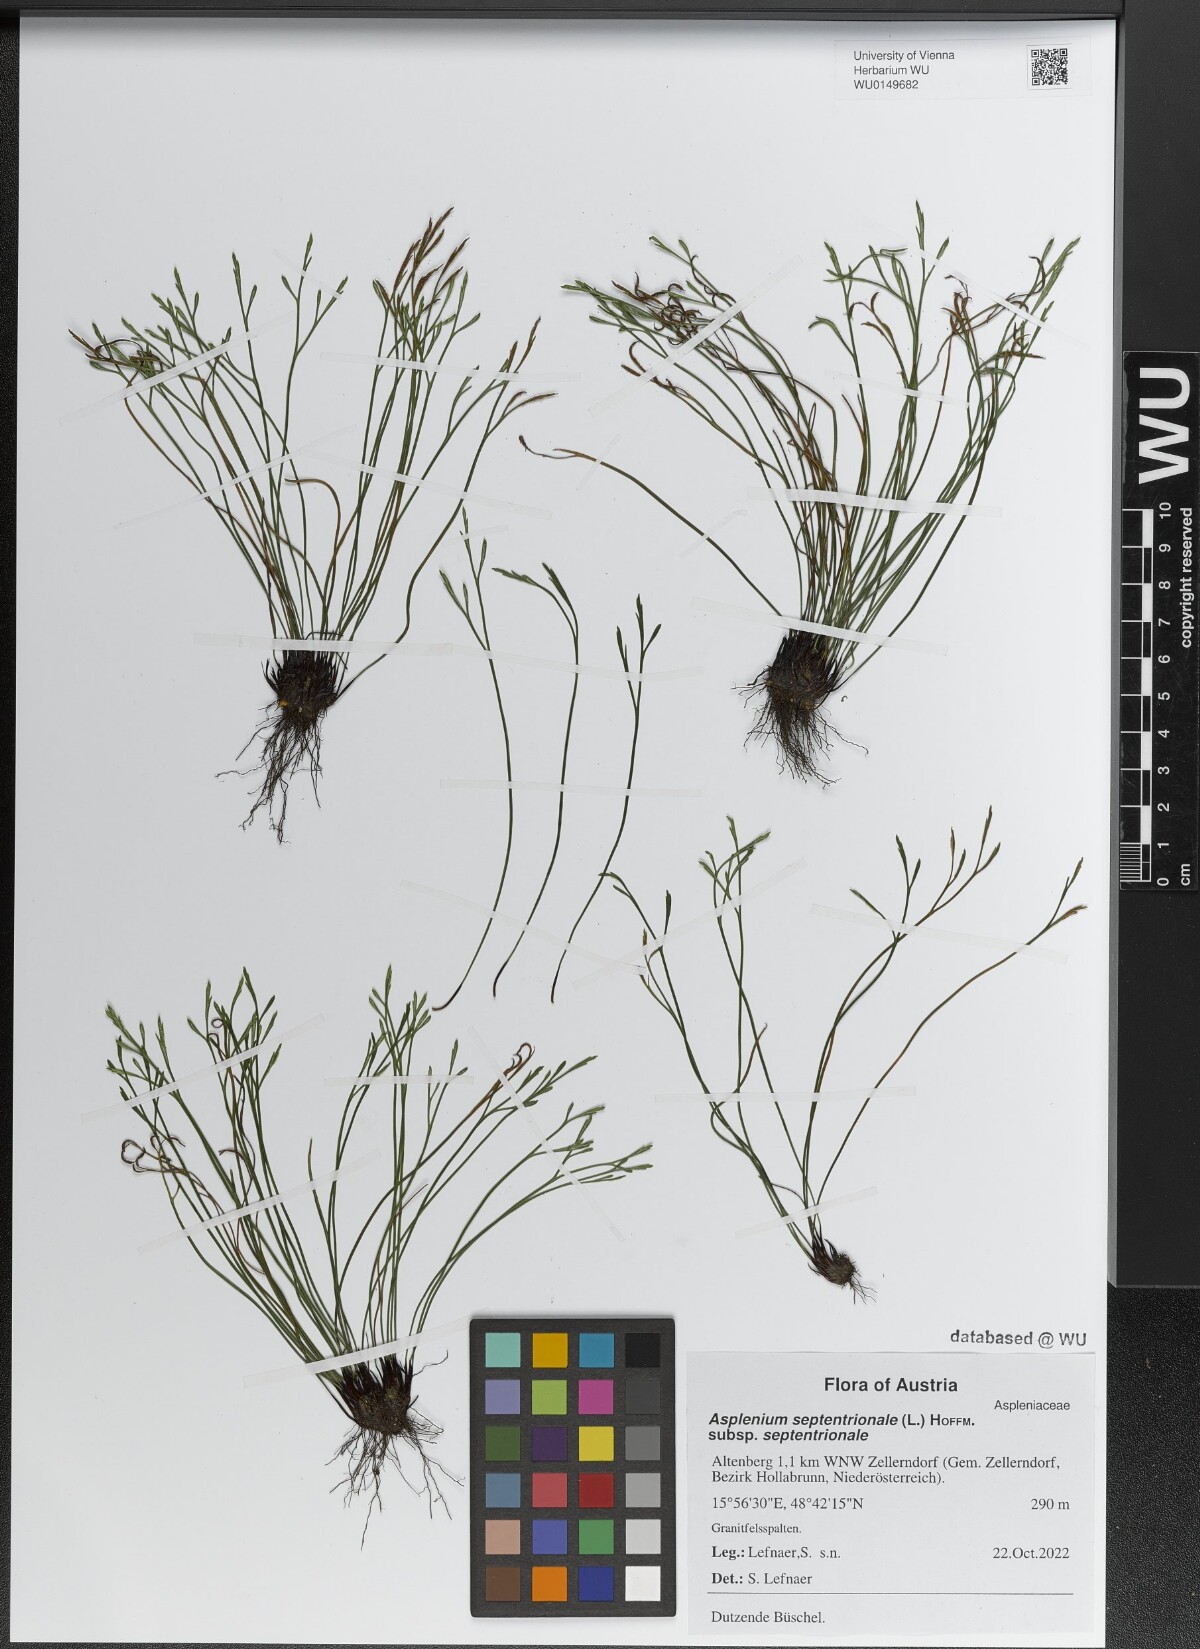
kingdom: Plantae
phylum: Tracheophyta
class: Polypodiopsida
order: Polypodiales
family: Aspleniaceae
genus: Asplenium
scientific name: Asplenium septentrionale
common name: Forked spleenwort
